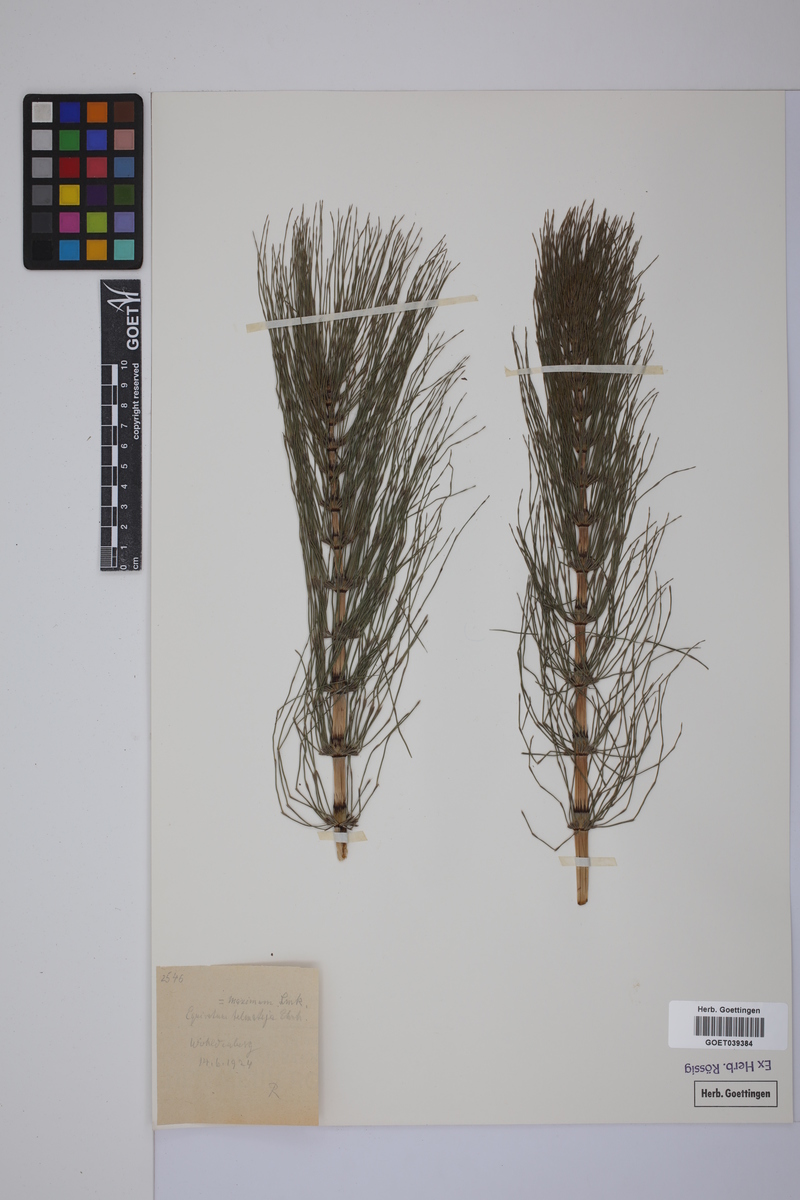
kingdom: Plantae
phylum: Tracheophyta
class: Polypodiopsida
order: Equisetales
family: Equisetaceae
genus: Equisetum
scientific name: Equisetum telmateia
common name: Great horsetail
